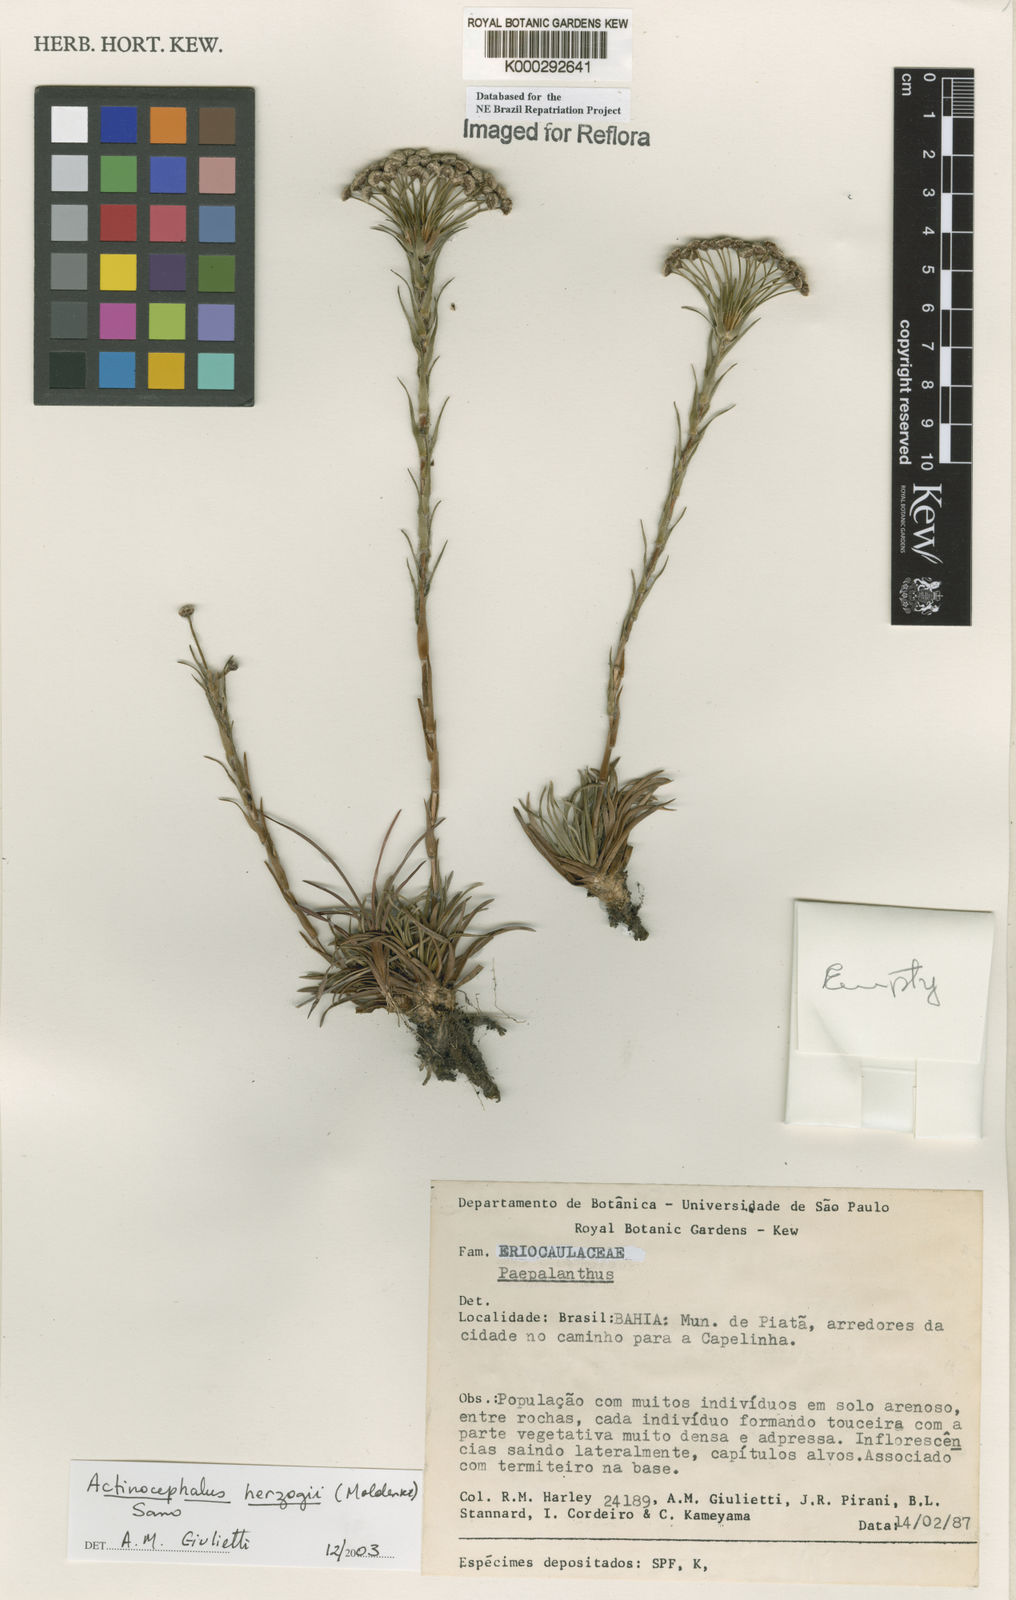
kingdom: Plantae
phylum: Tracheophyta
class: Liliopsida
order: Poales
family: Eriocaulaceae
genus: Paepalanthus
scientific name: Paepalanthus herzogii
